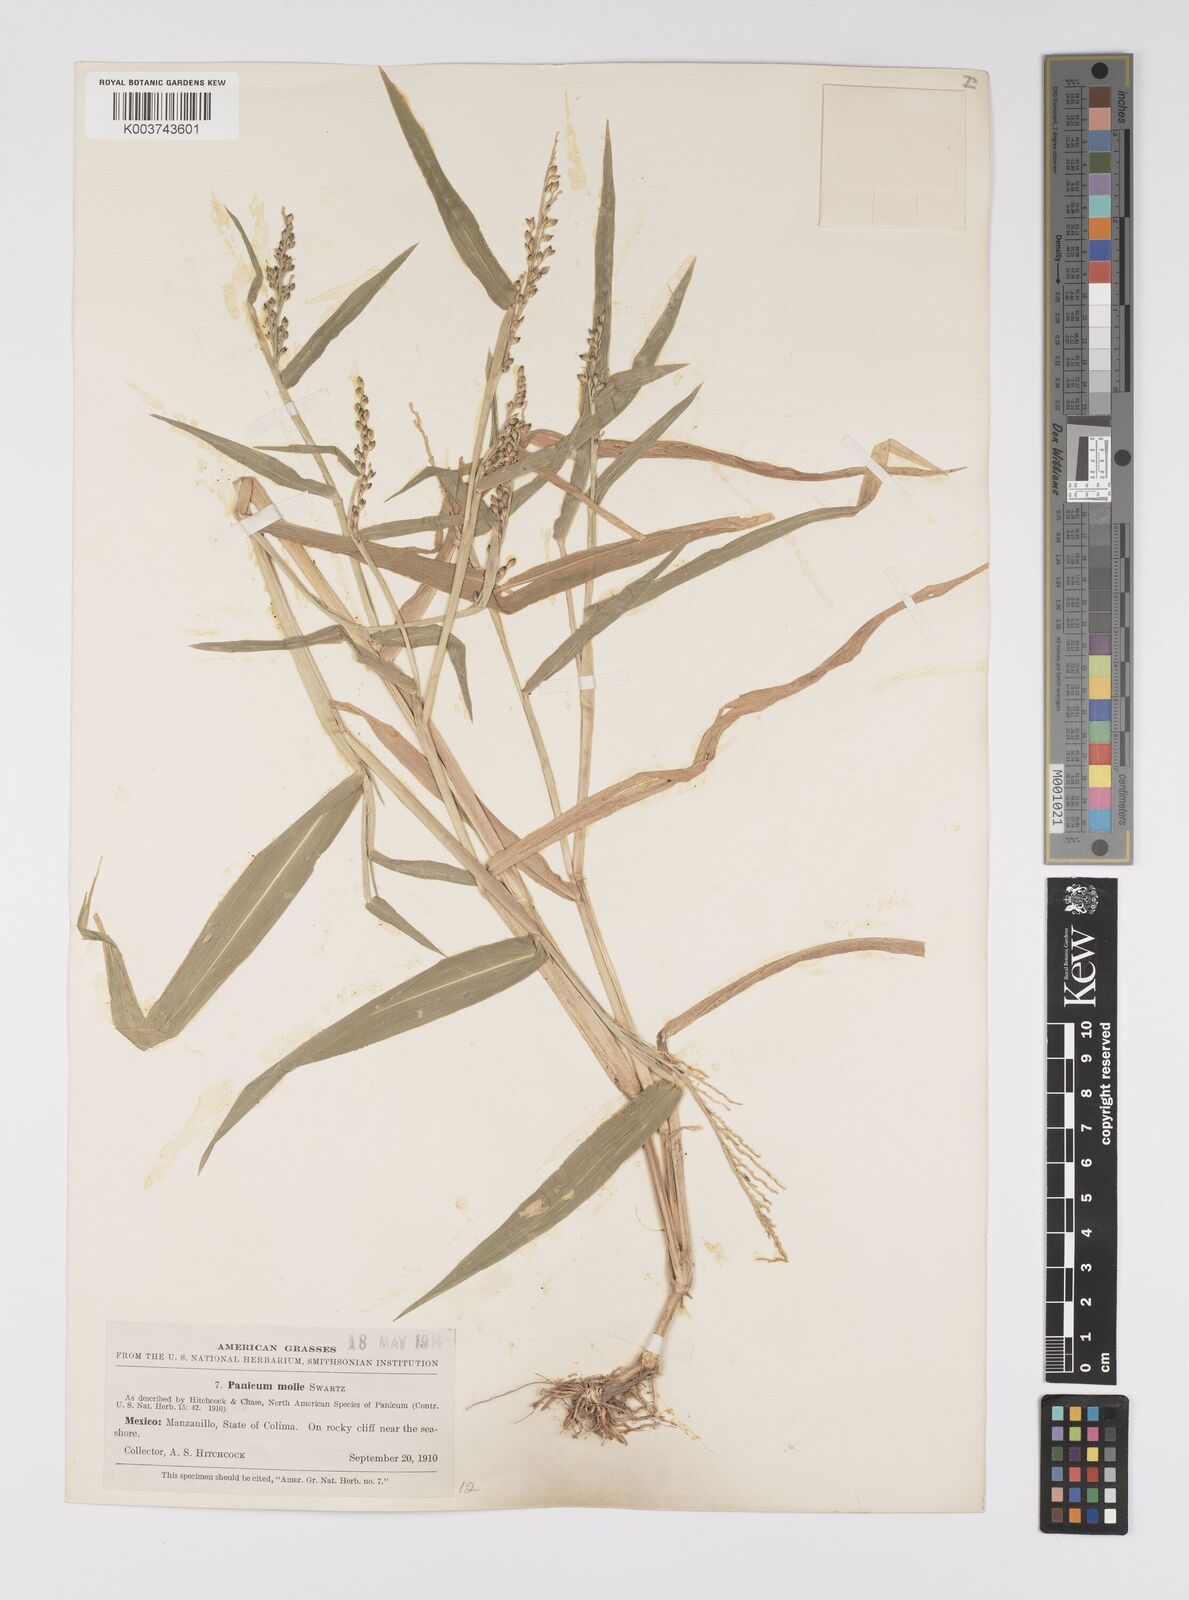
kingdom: Plantae
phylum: Tracheophyta
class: Liliopsida
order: Poales
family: Poaceae
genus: Urochloa
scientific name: Urochloa mollis
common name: Grass
